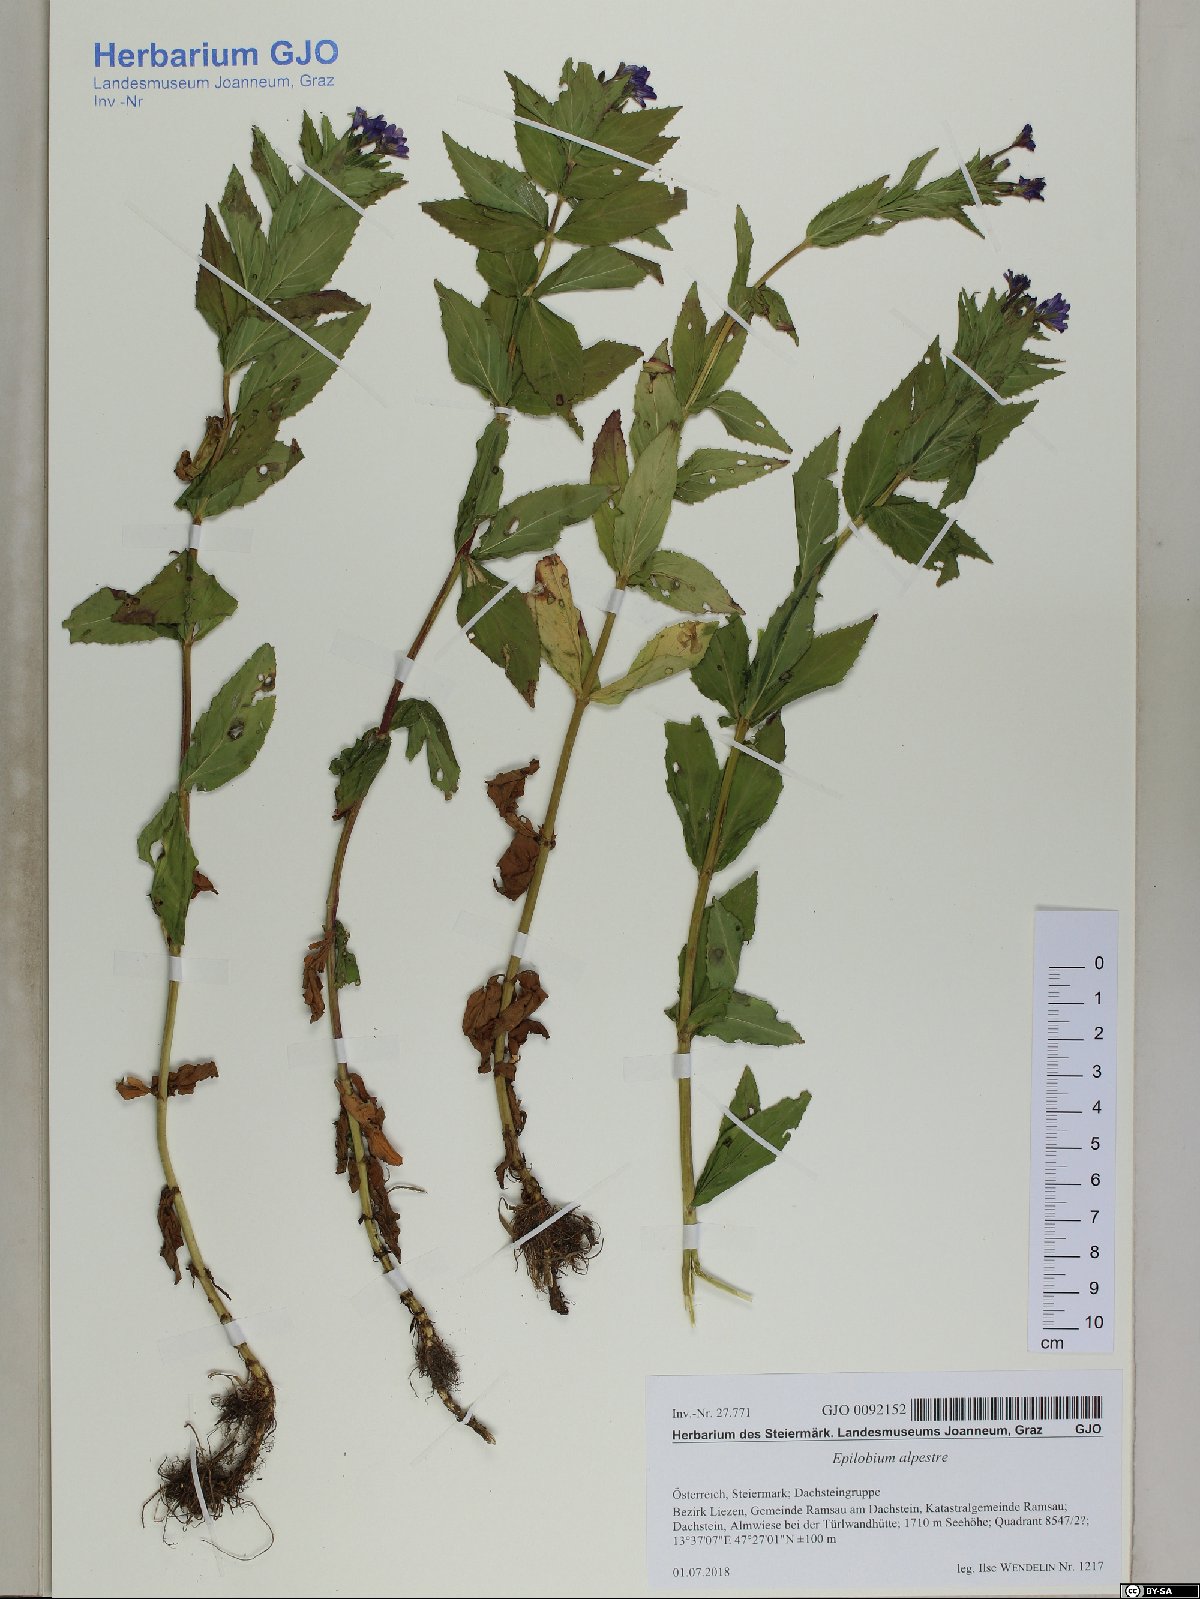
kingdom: Plantae
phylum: Tracheophyta
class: Magnoliopsida
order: Myrtales
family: Onagraceae
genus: Epilobium
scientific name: Epilobium alpestre
